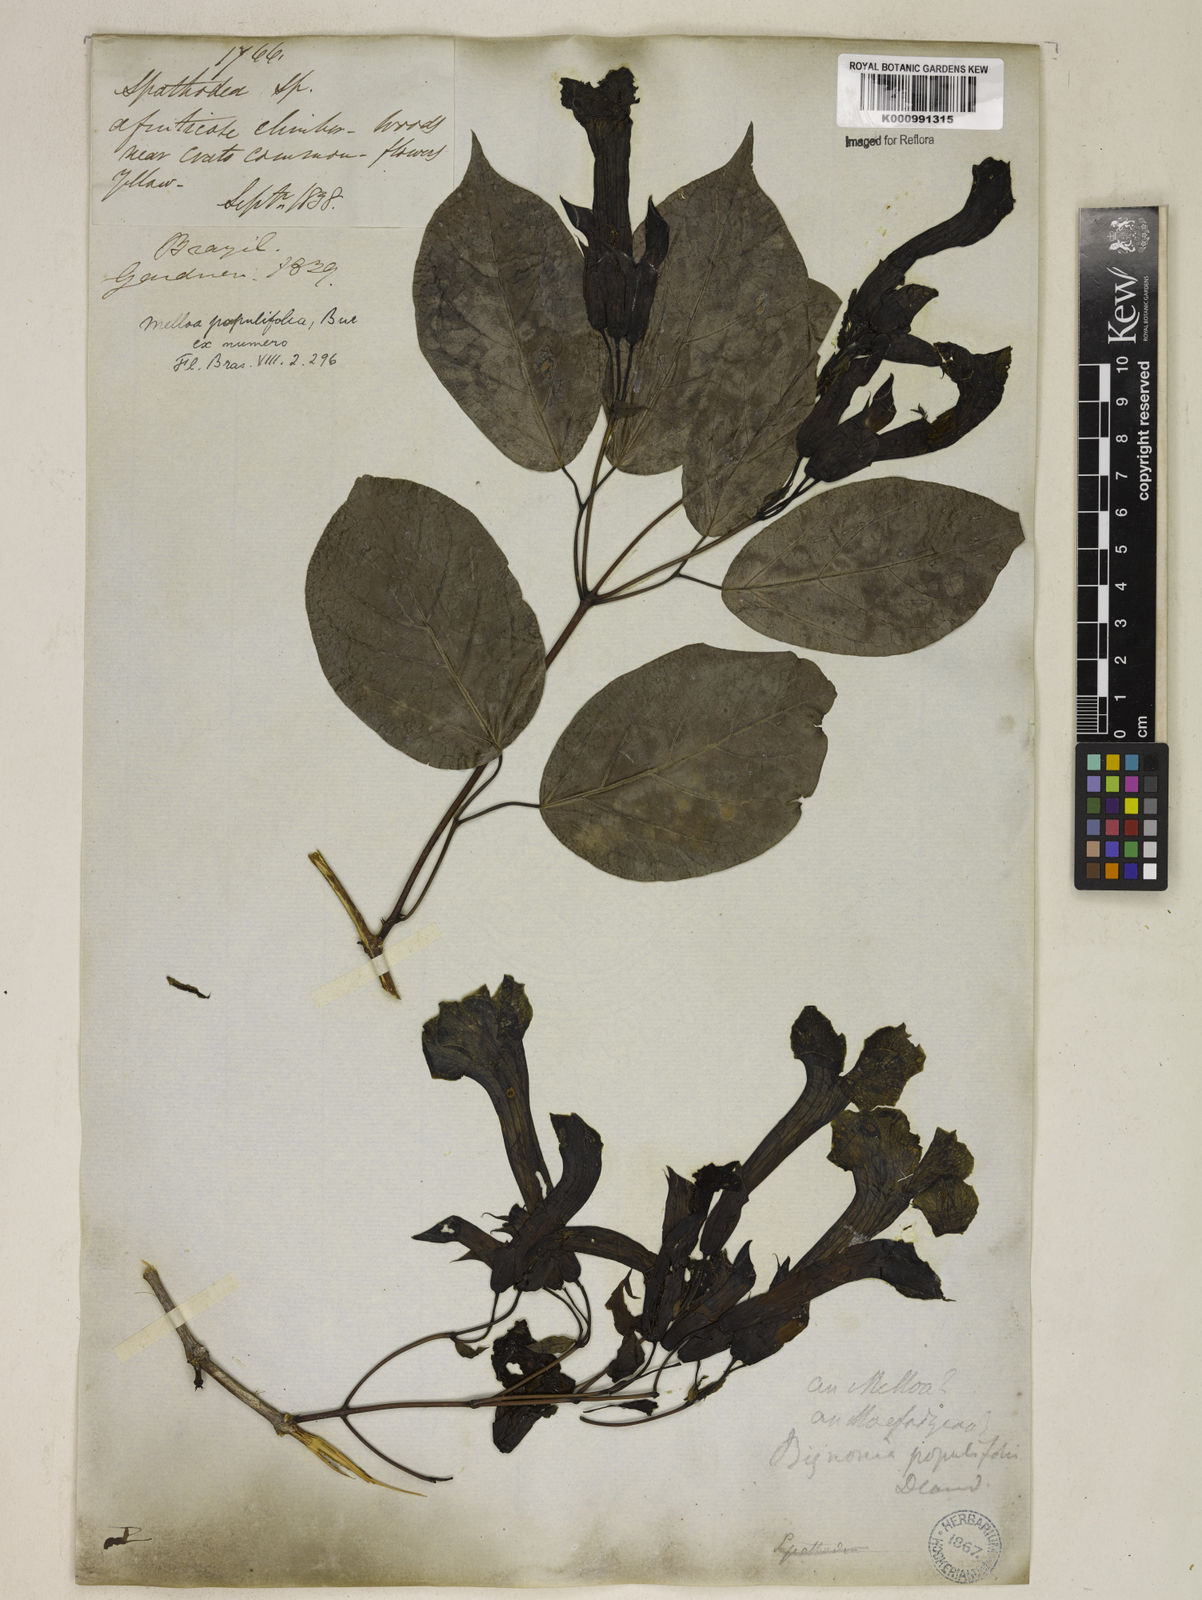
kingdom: Plantae
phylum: Tracheophyta
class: Magnoliopsida
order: Lamiales
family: Bignoniaceae
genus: Dolichandra
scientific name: Dolichandra quadrivalvis
